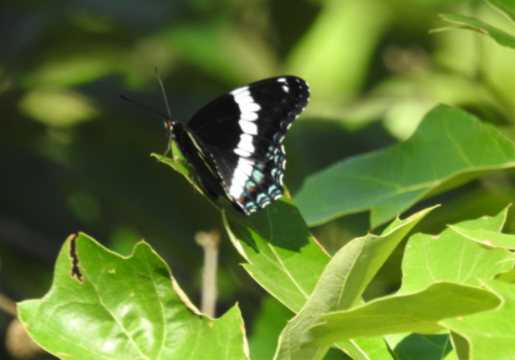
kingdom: Animalia
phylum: Arthropoda
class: Insecta
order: Lepidoptera
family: Nymphalidae
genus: Limenitis
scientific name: Limenitis arthemis
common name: Red-spotted Admiral
